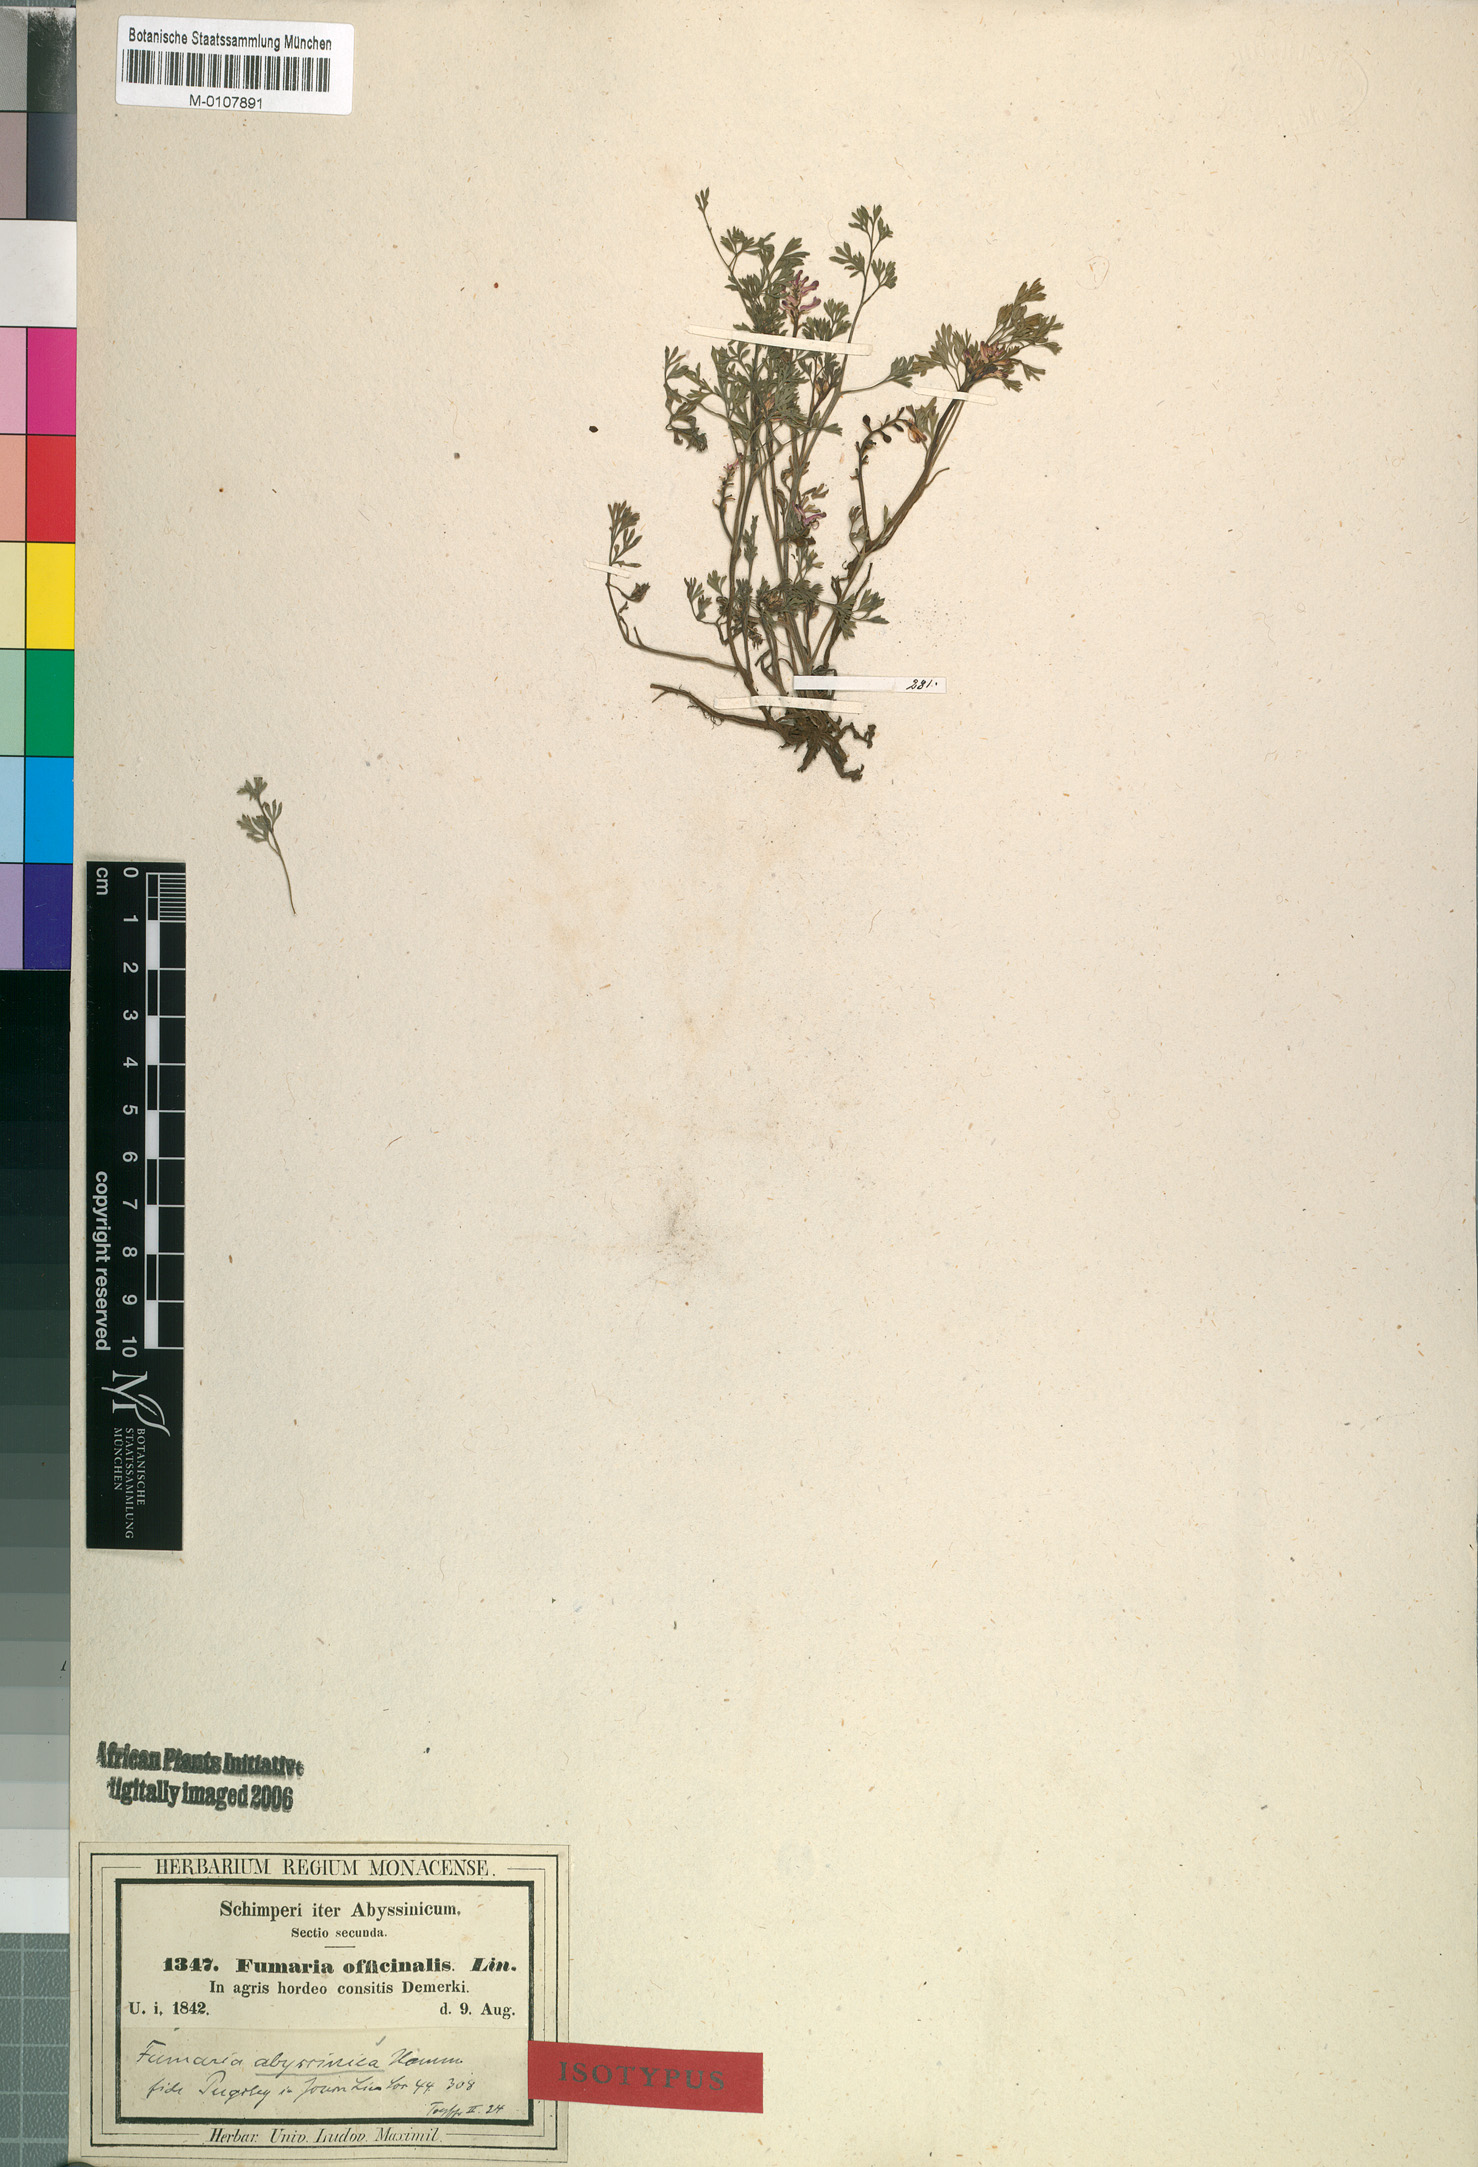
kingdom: Plantae
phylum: Tracheophyta
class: Magnoliopsida
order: Ranunculales
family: Papaveraceae
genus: Fumaria
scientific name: Fumaria abyssinica
